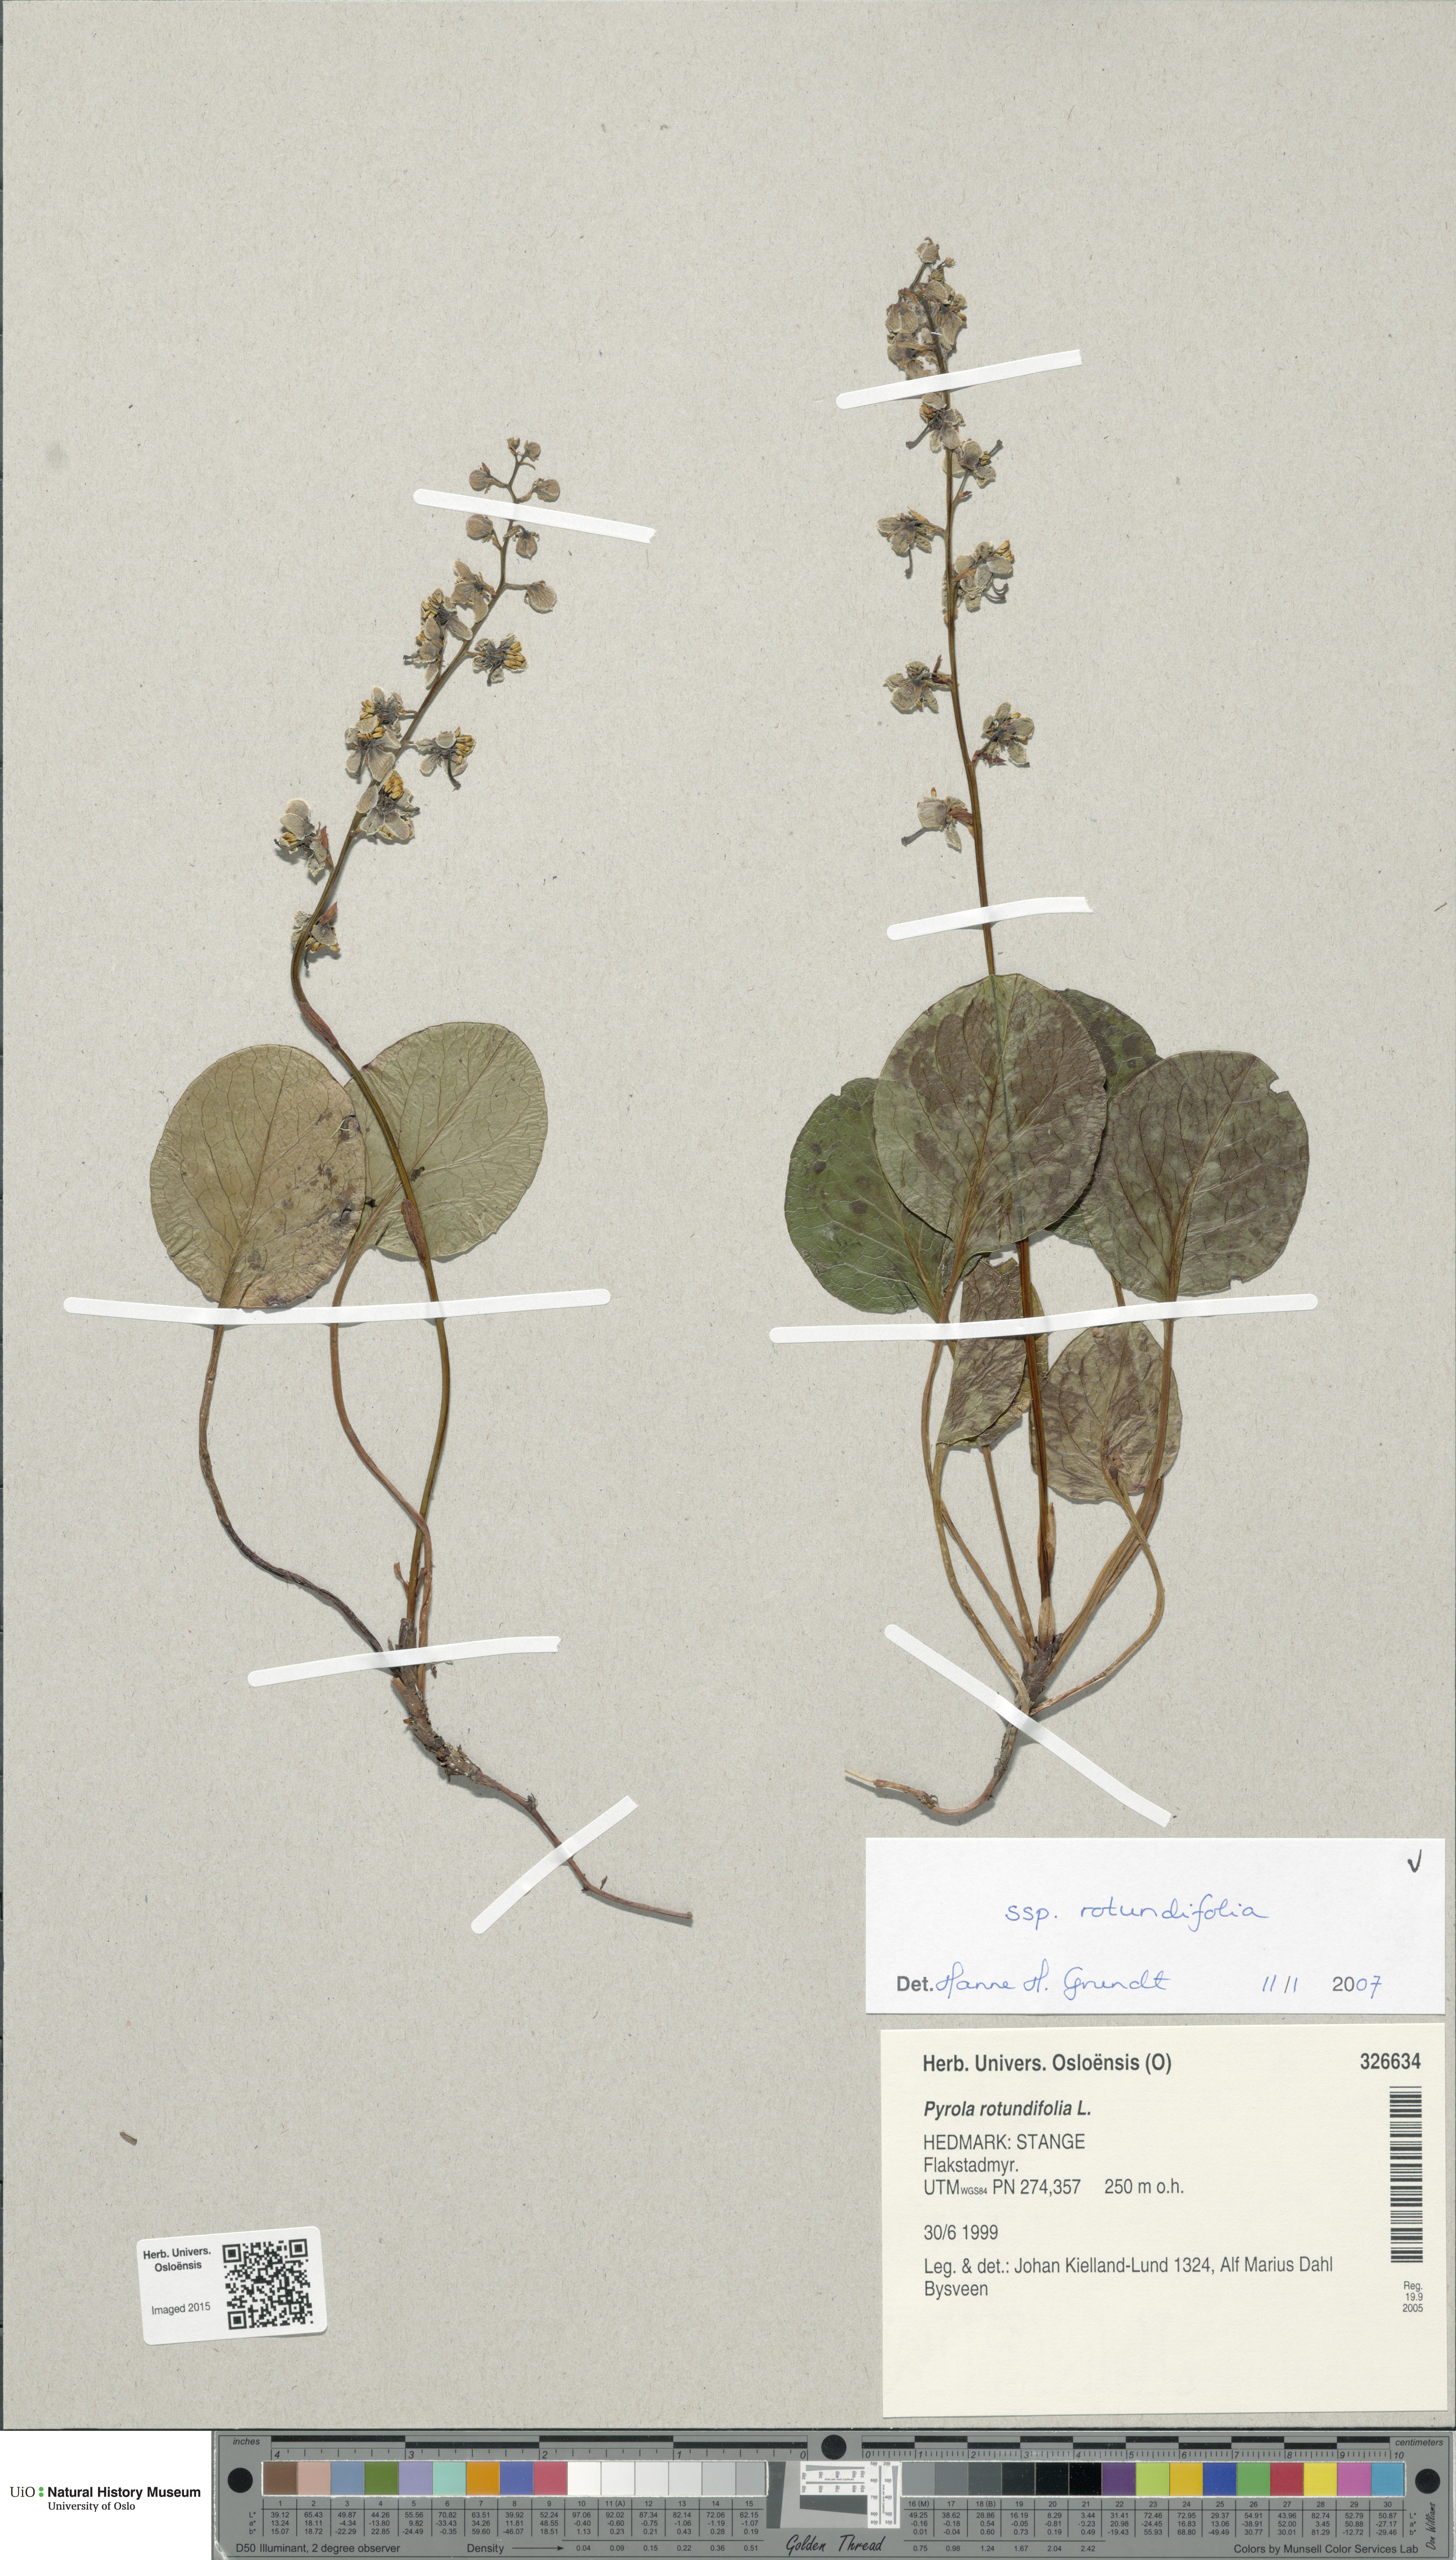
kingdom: Plantae
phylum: Tracheophyta
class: Magnoliopsida
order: Ericales
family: Ericaceae
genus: Pyrola
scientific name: Pyrola rotundifolia
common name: Round-leaved wintergreen
